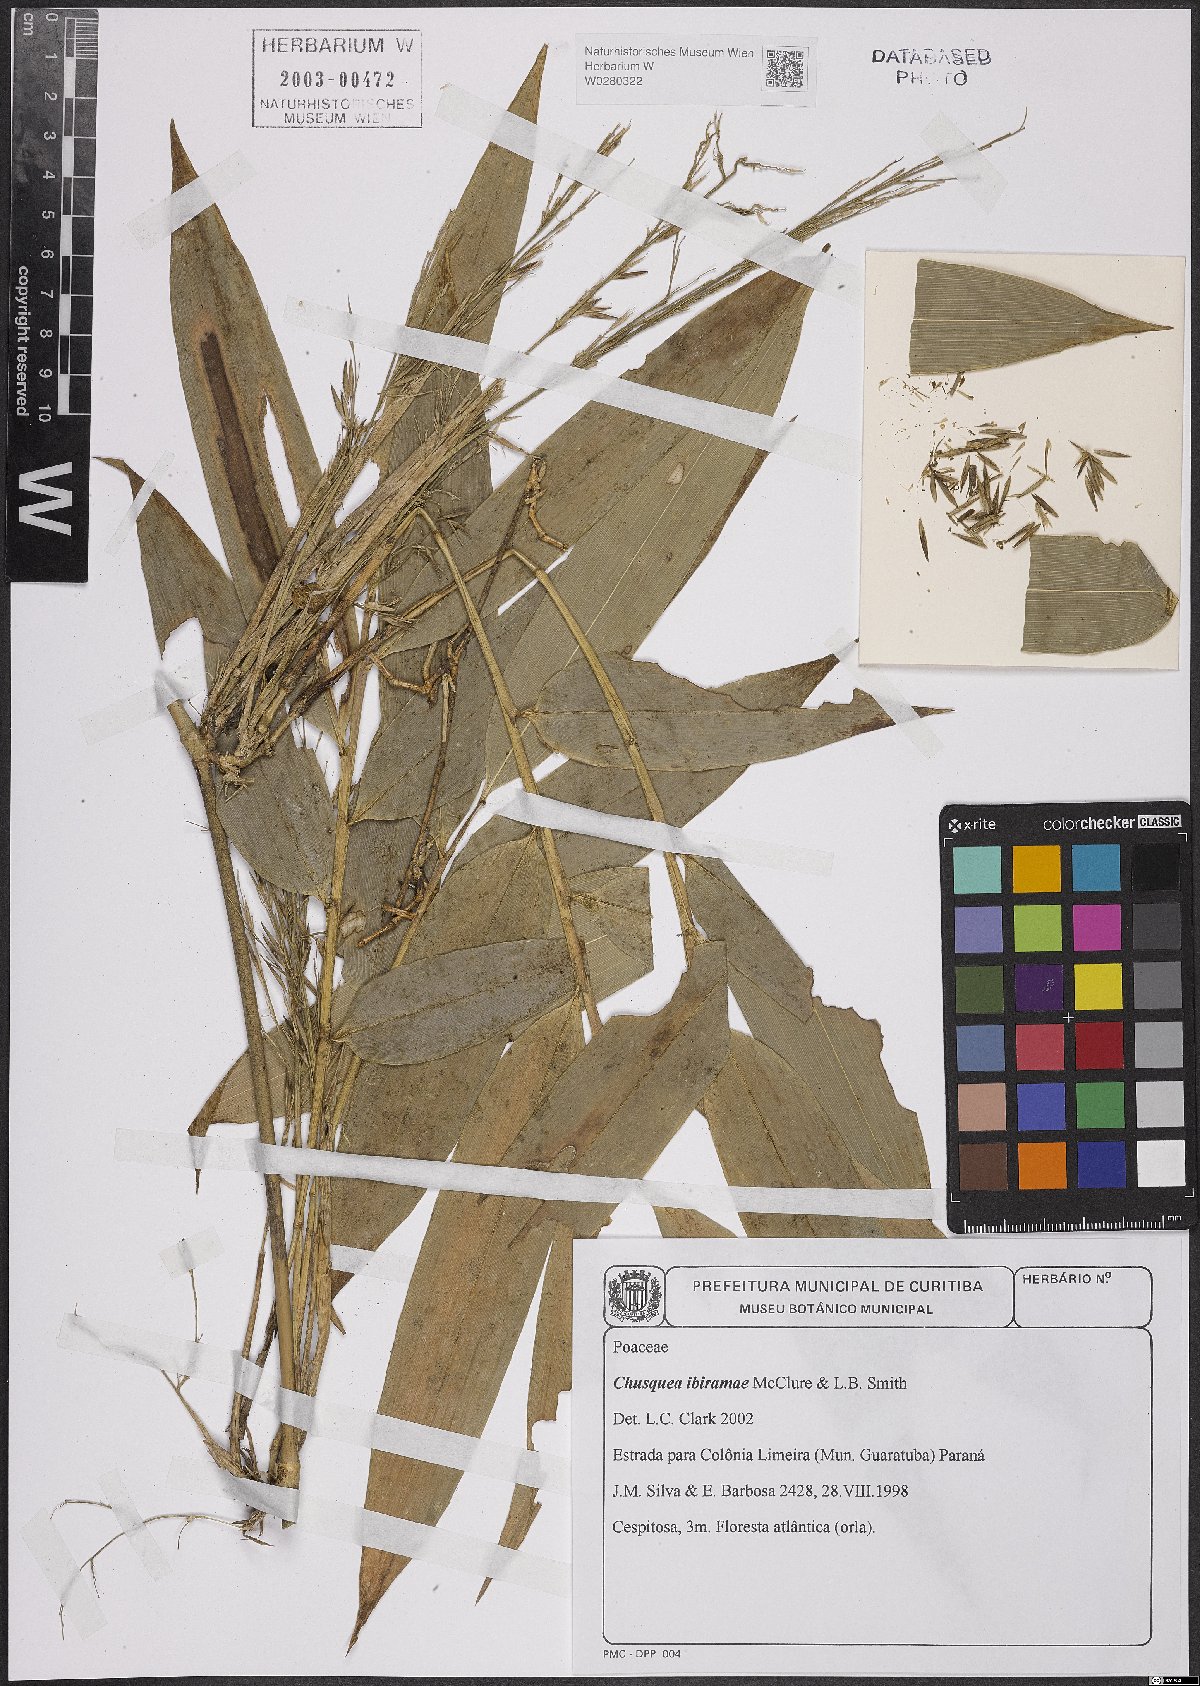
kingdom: Plantae
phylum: Tracheophyta
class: Liliopsida
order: Poales
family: Poaceae
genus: Chusquea
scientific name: Chusquea ibiramae
